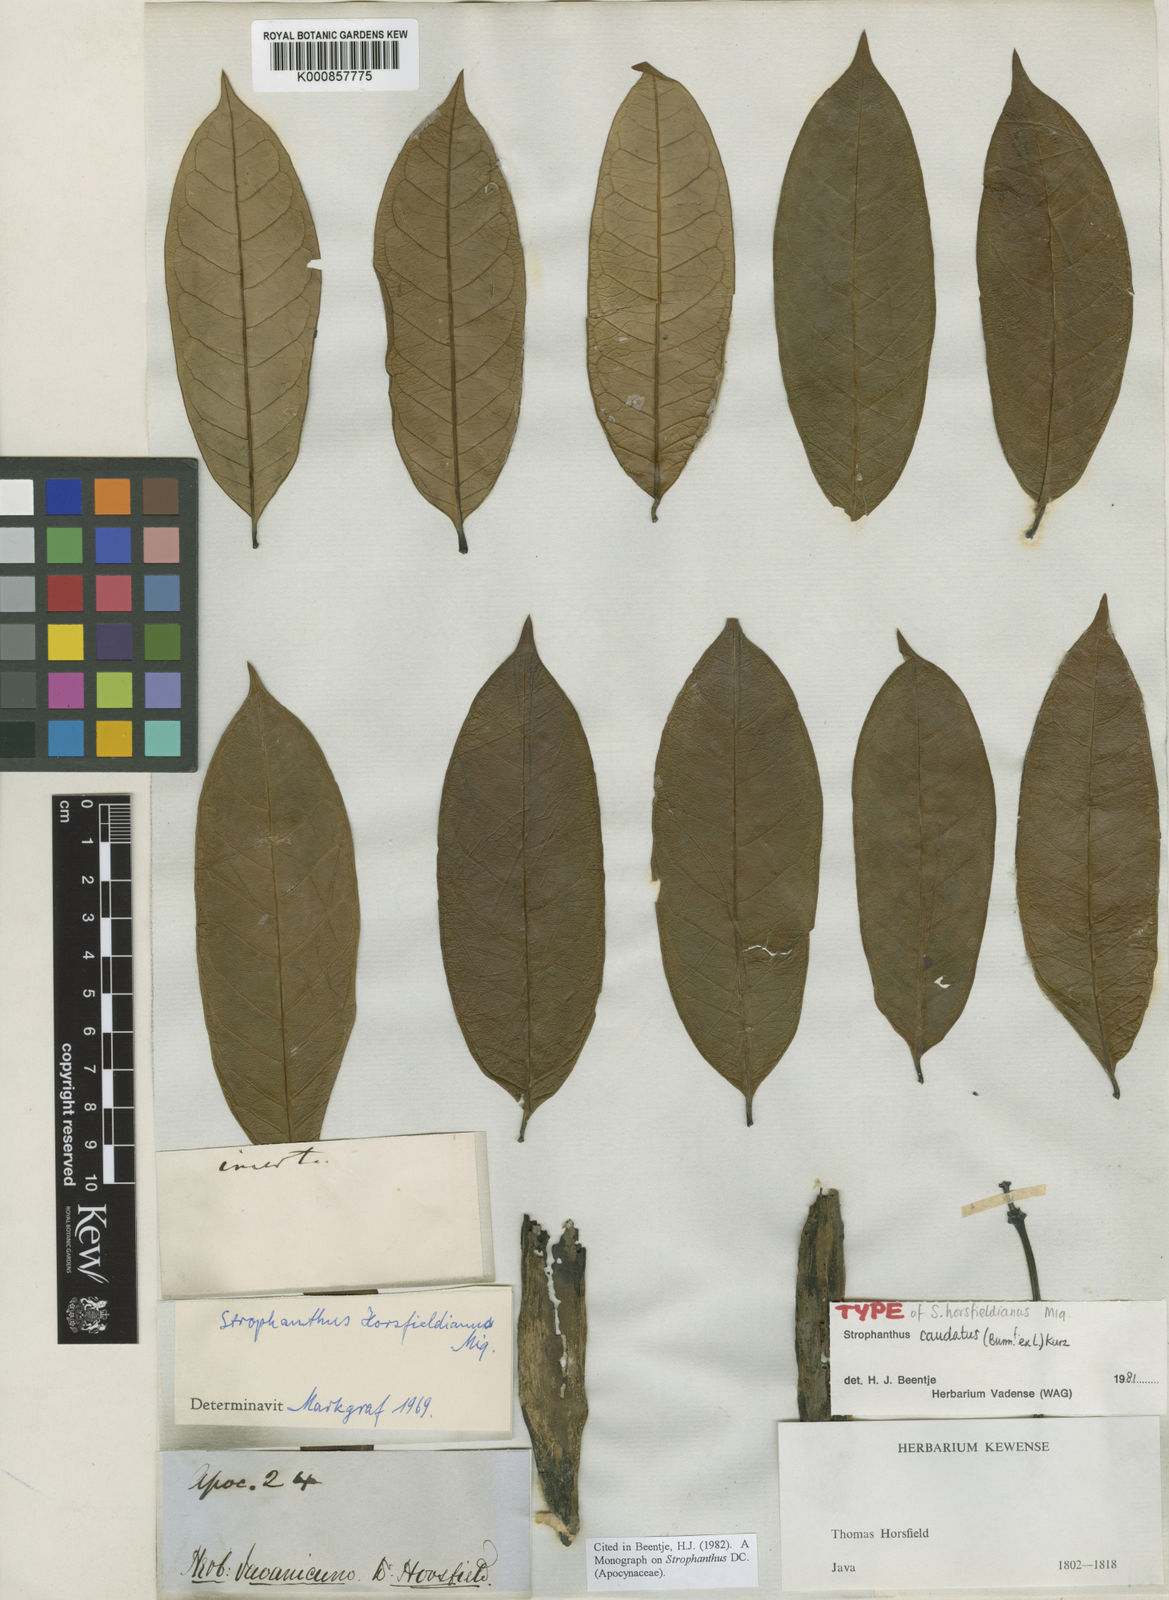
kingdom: Plantae
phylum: Tracheophyta
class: Magnoliopsida
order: Gentianales
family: Apocynaceae
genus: Strophanthus
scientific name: Strophanthus caudatus
